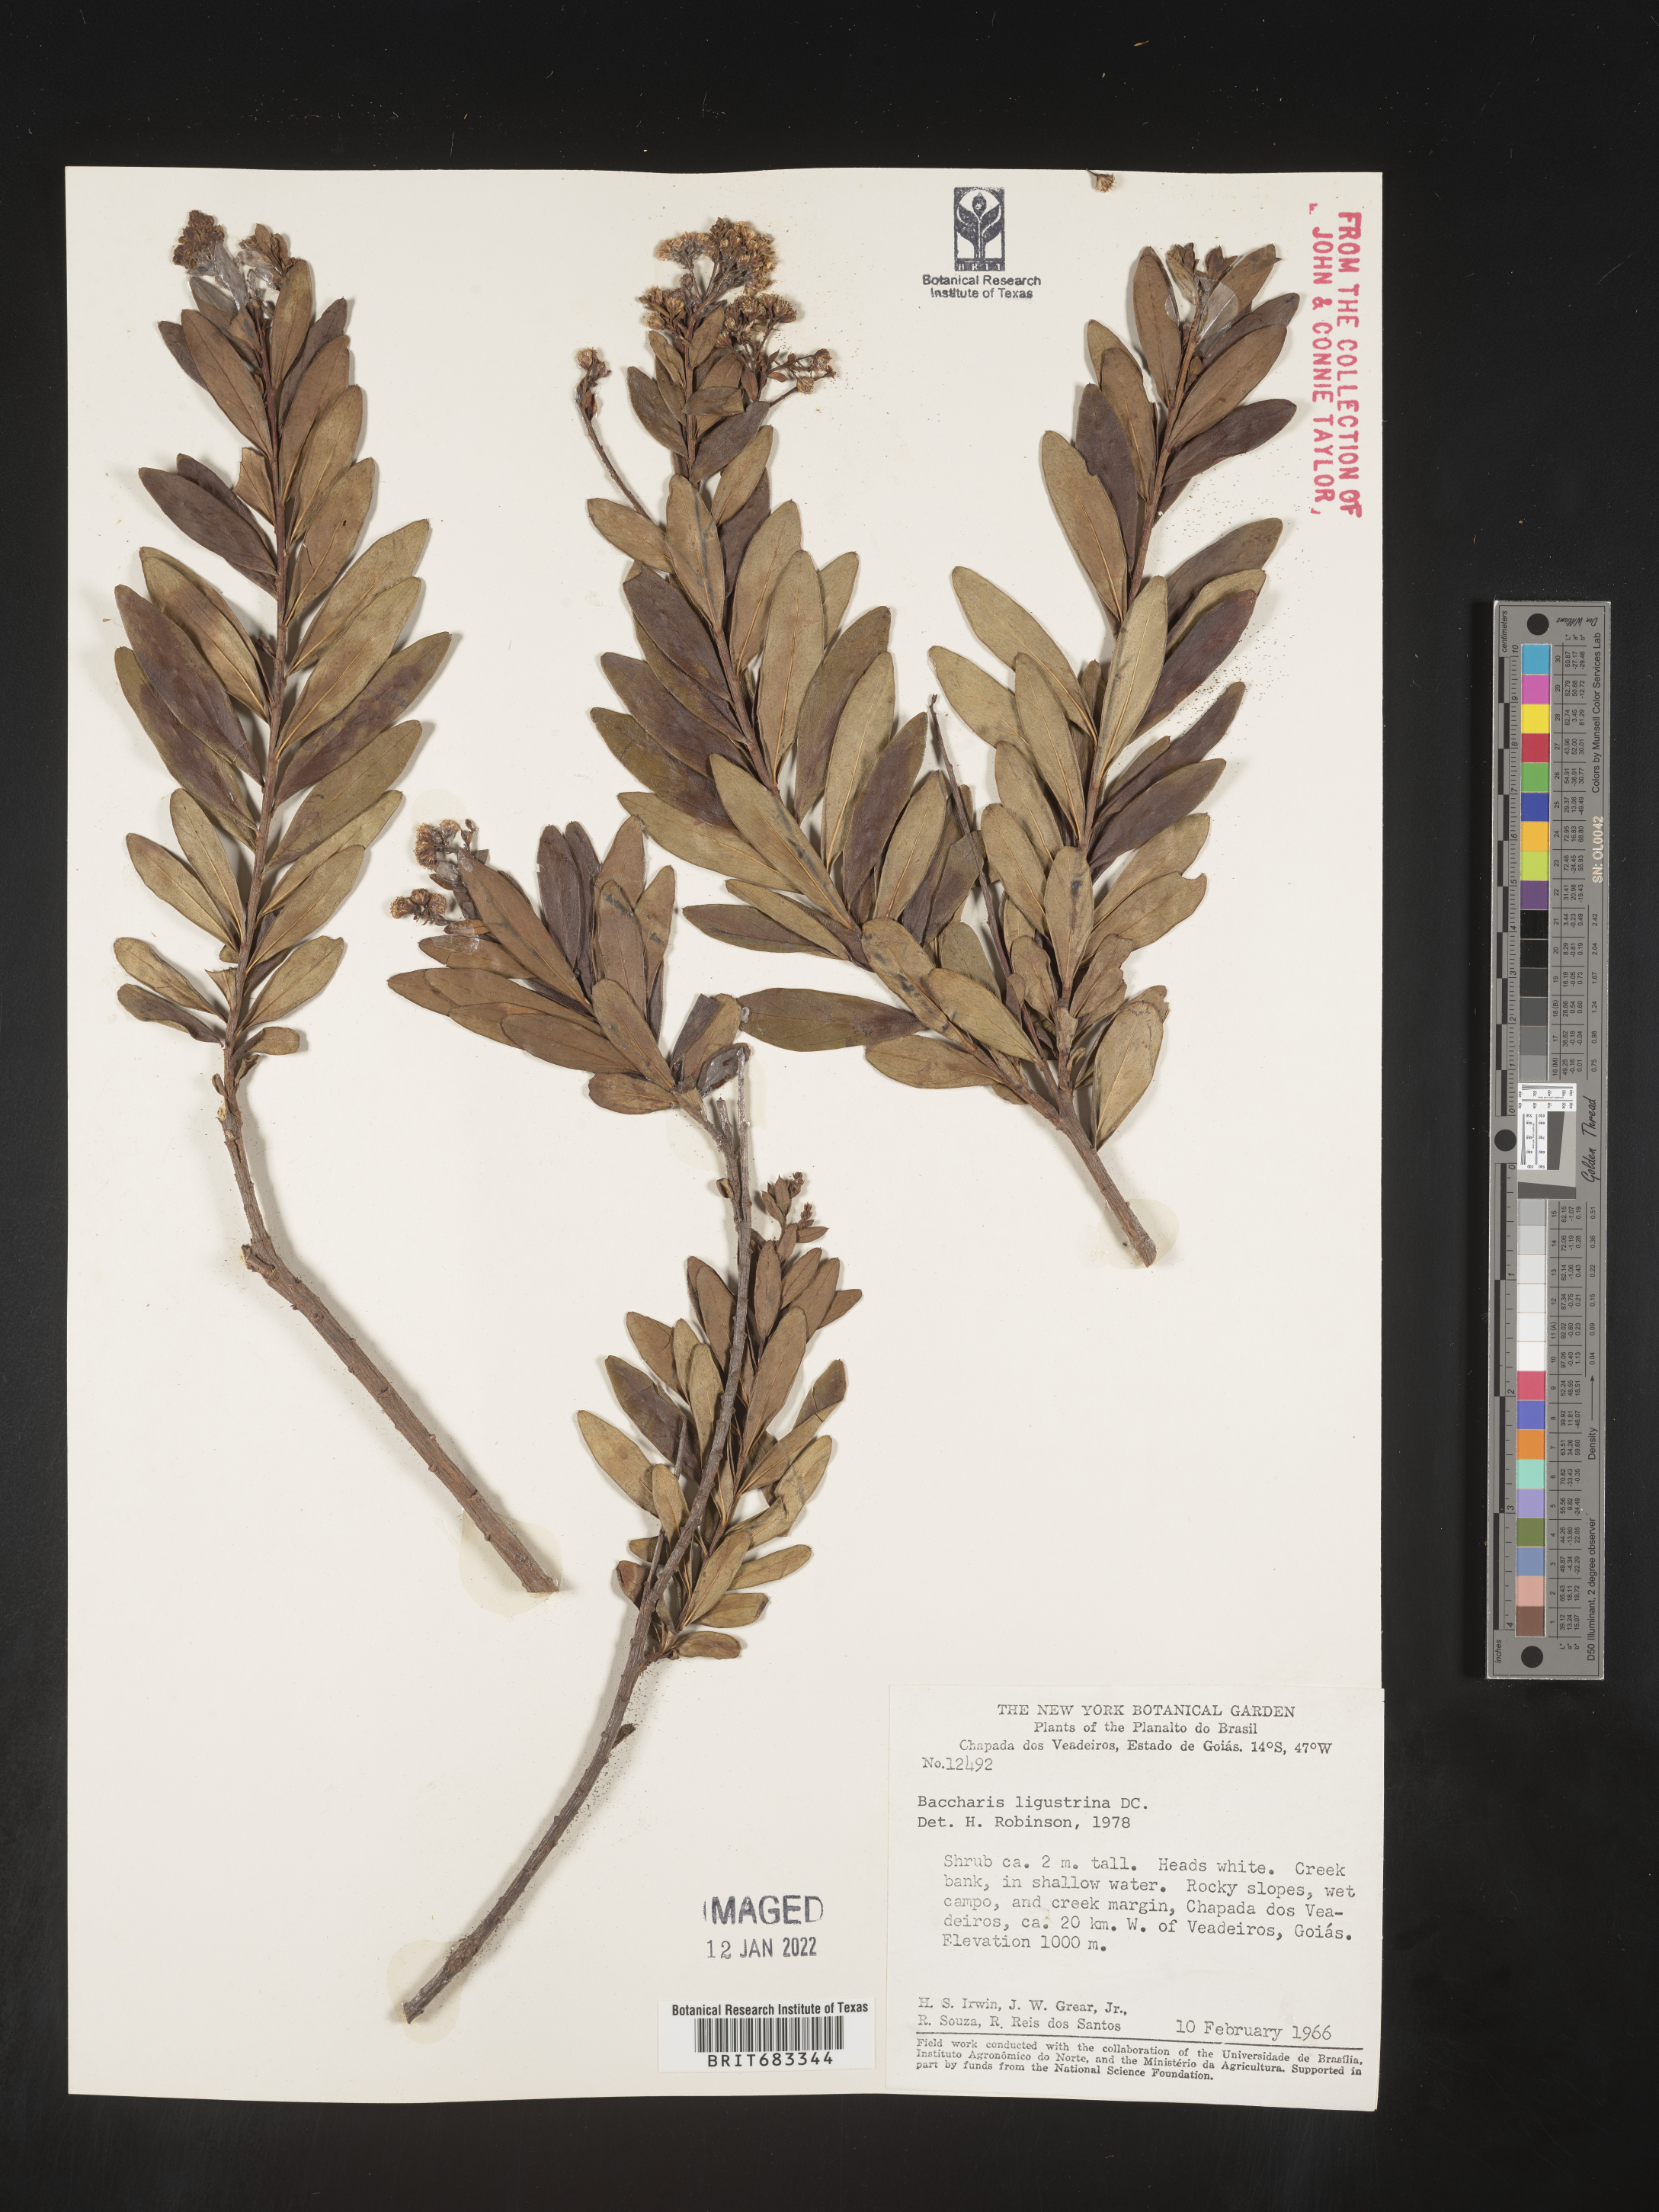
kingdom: Plantae
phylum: Tracheophyta
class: Magnoliopsida
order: Asterales
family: Asteraceae
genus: Baccharis
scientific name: Baccharis
